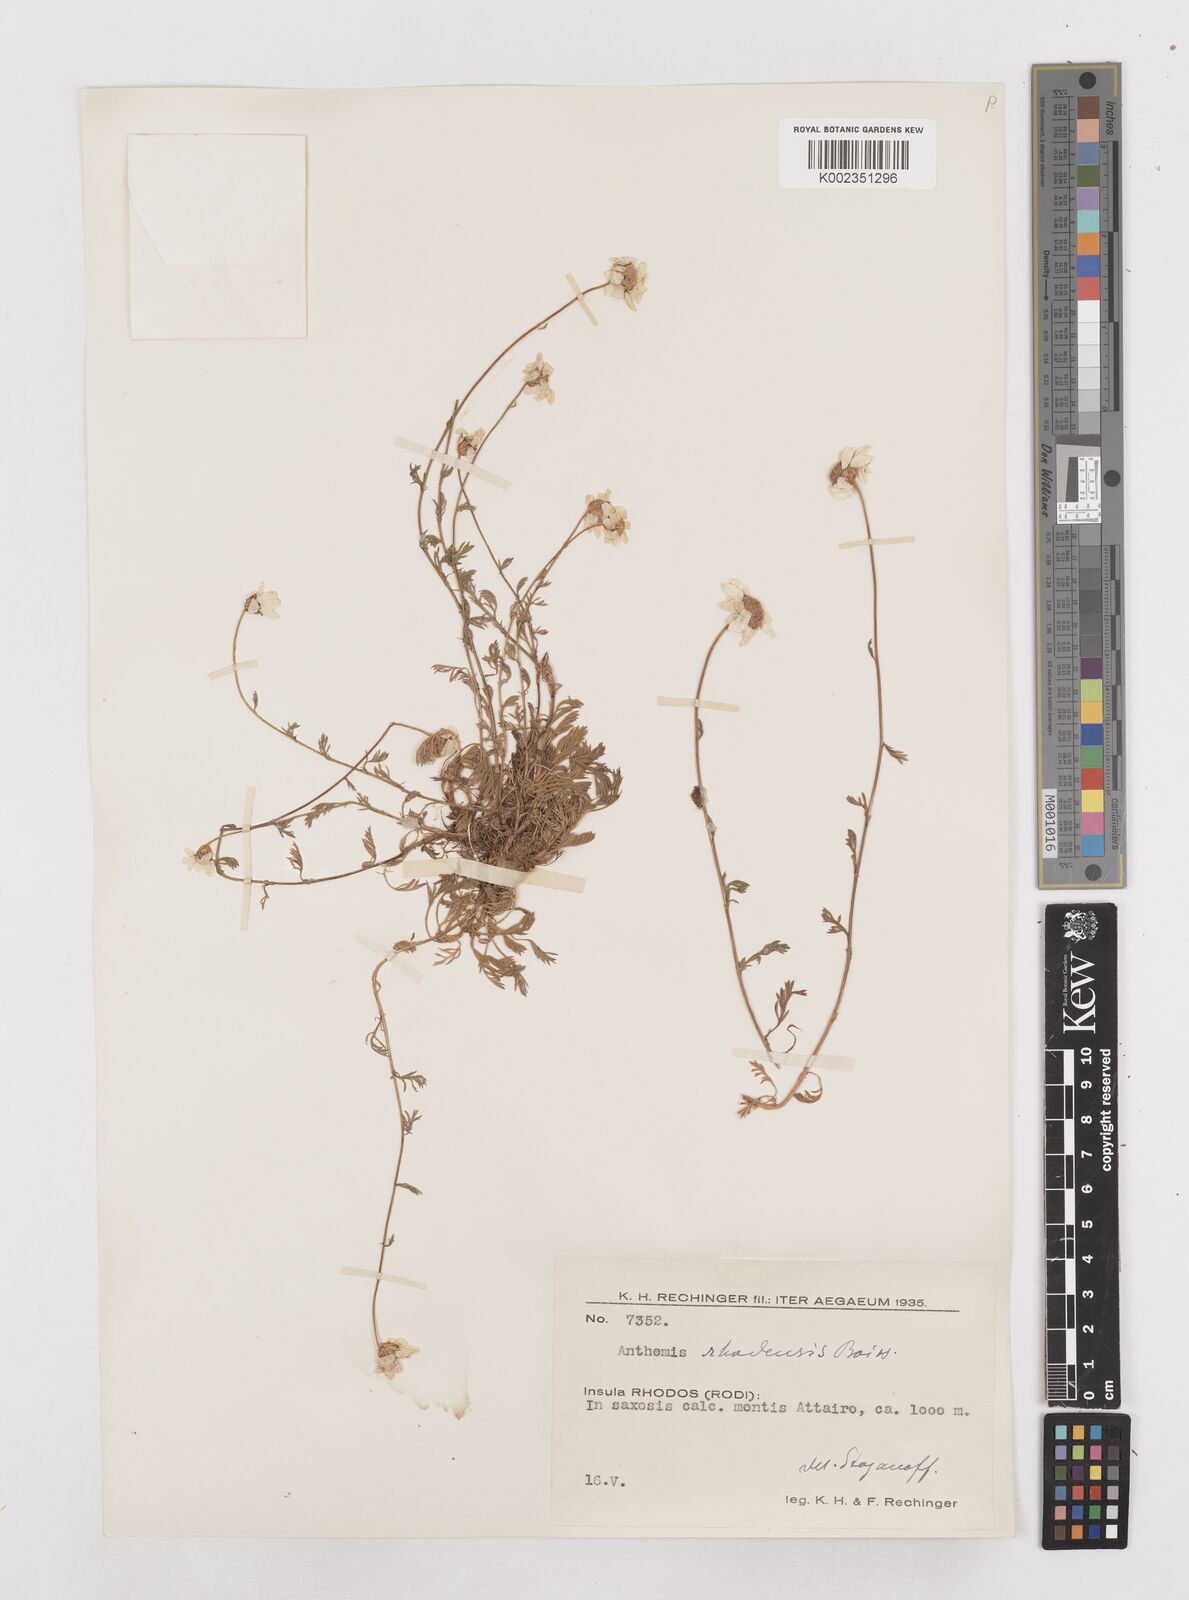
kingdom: Plantae
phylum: Tracheophyta
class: Magnoliopsida
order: Asterales
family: Asteraceae
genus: Anthemis
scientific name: Anthemis rhodensis
